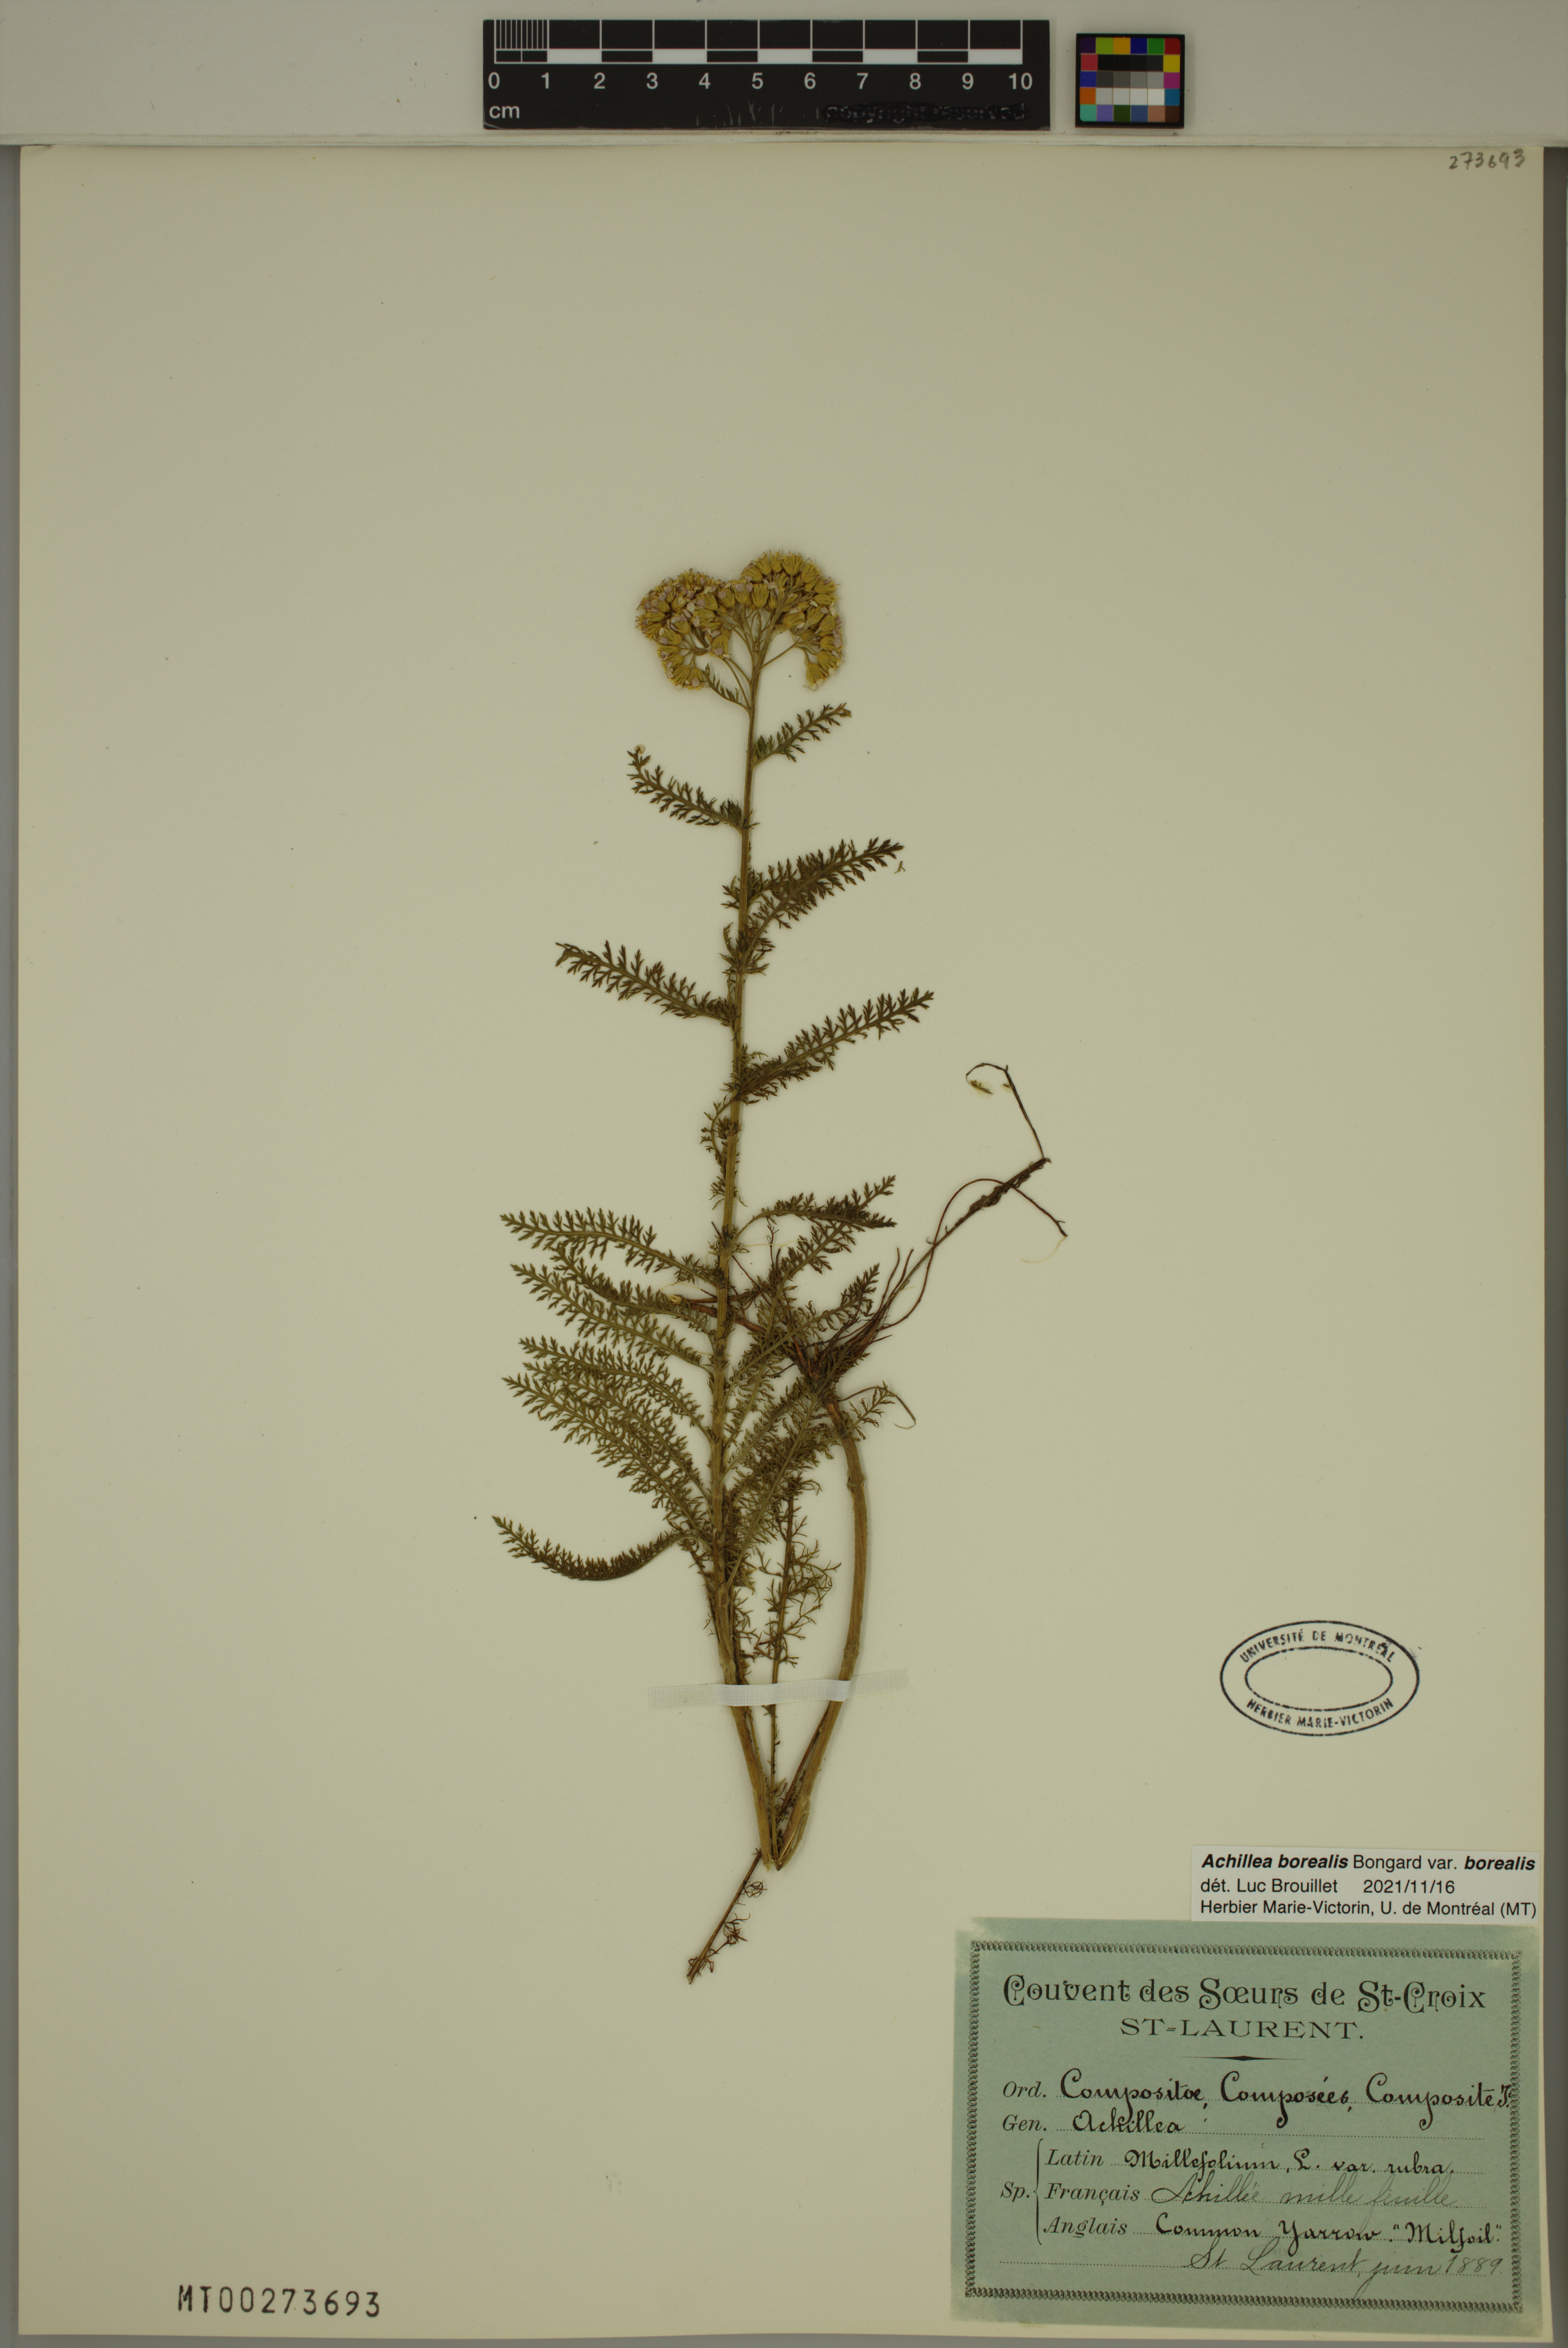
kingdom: Plantae
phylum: Tracheophyta
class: Magnoliopsida
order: Asterales
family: Asteraceae
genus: Achillea
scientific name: Achillea millefolium
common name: Yarrow
